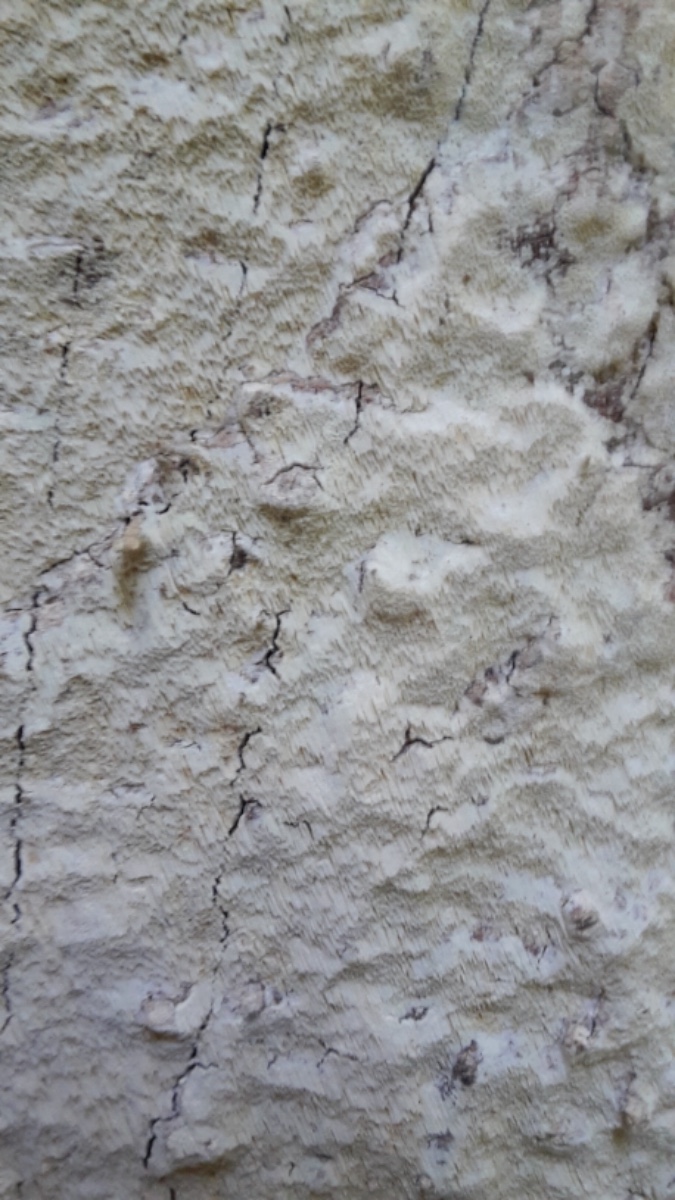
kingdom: Fungi
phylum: Basidiomycota
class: Agaricomycetes
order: Polyporales
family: Fomitopsidaceae
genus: Daedalea
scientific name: Daedalea xantha
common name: gul sejporesvamp
